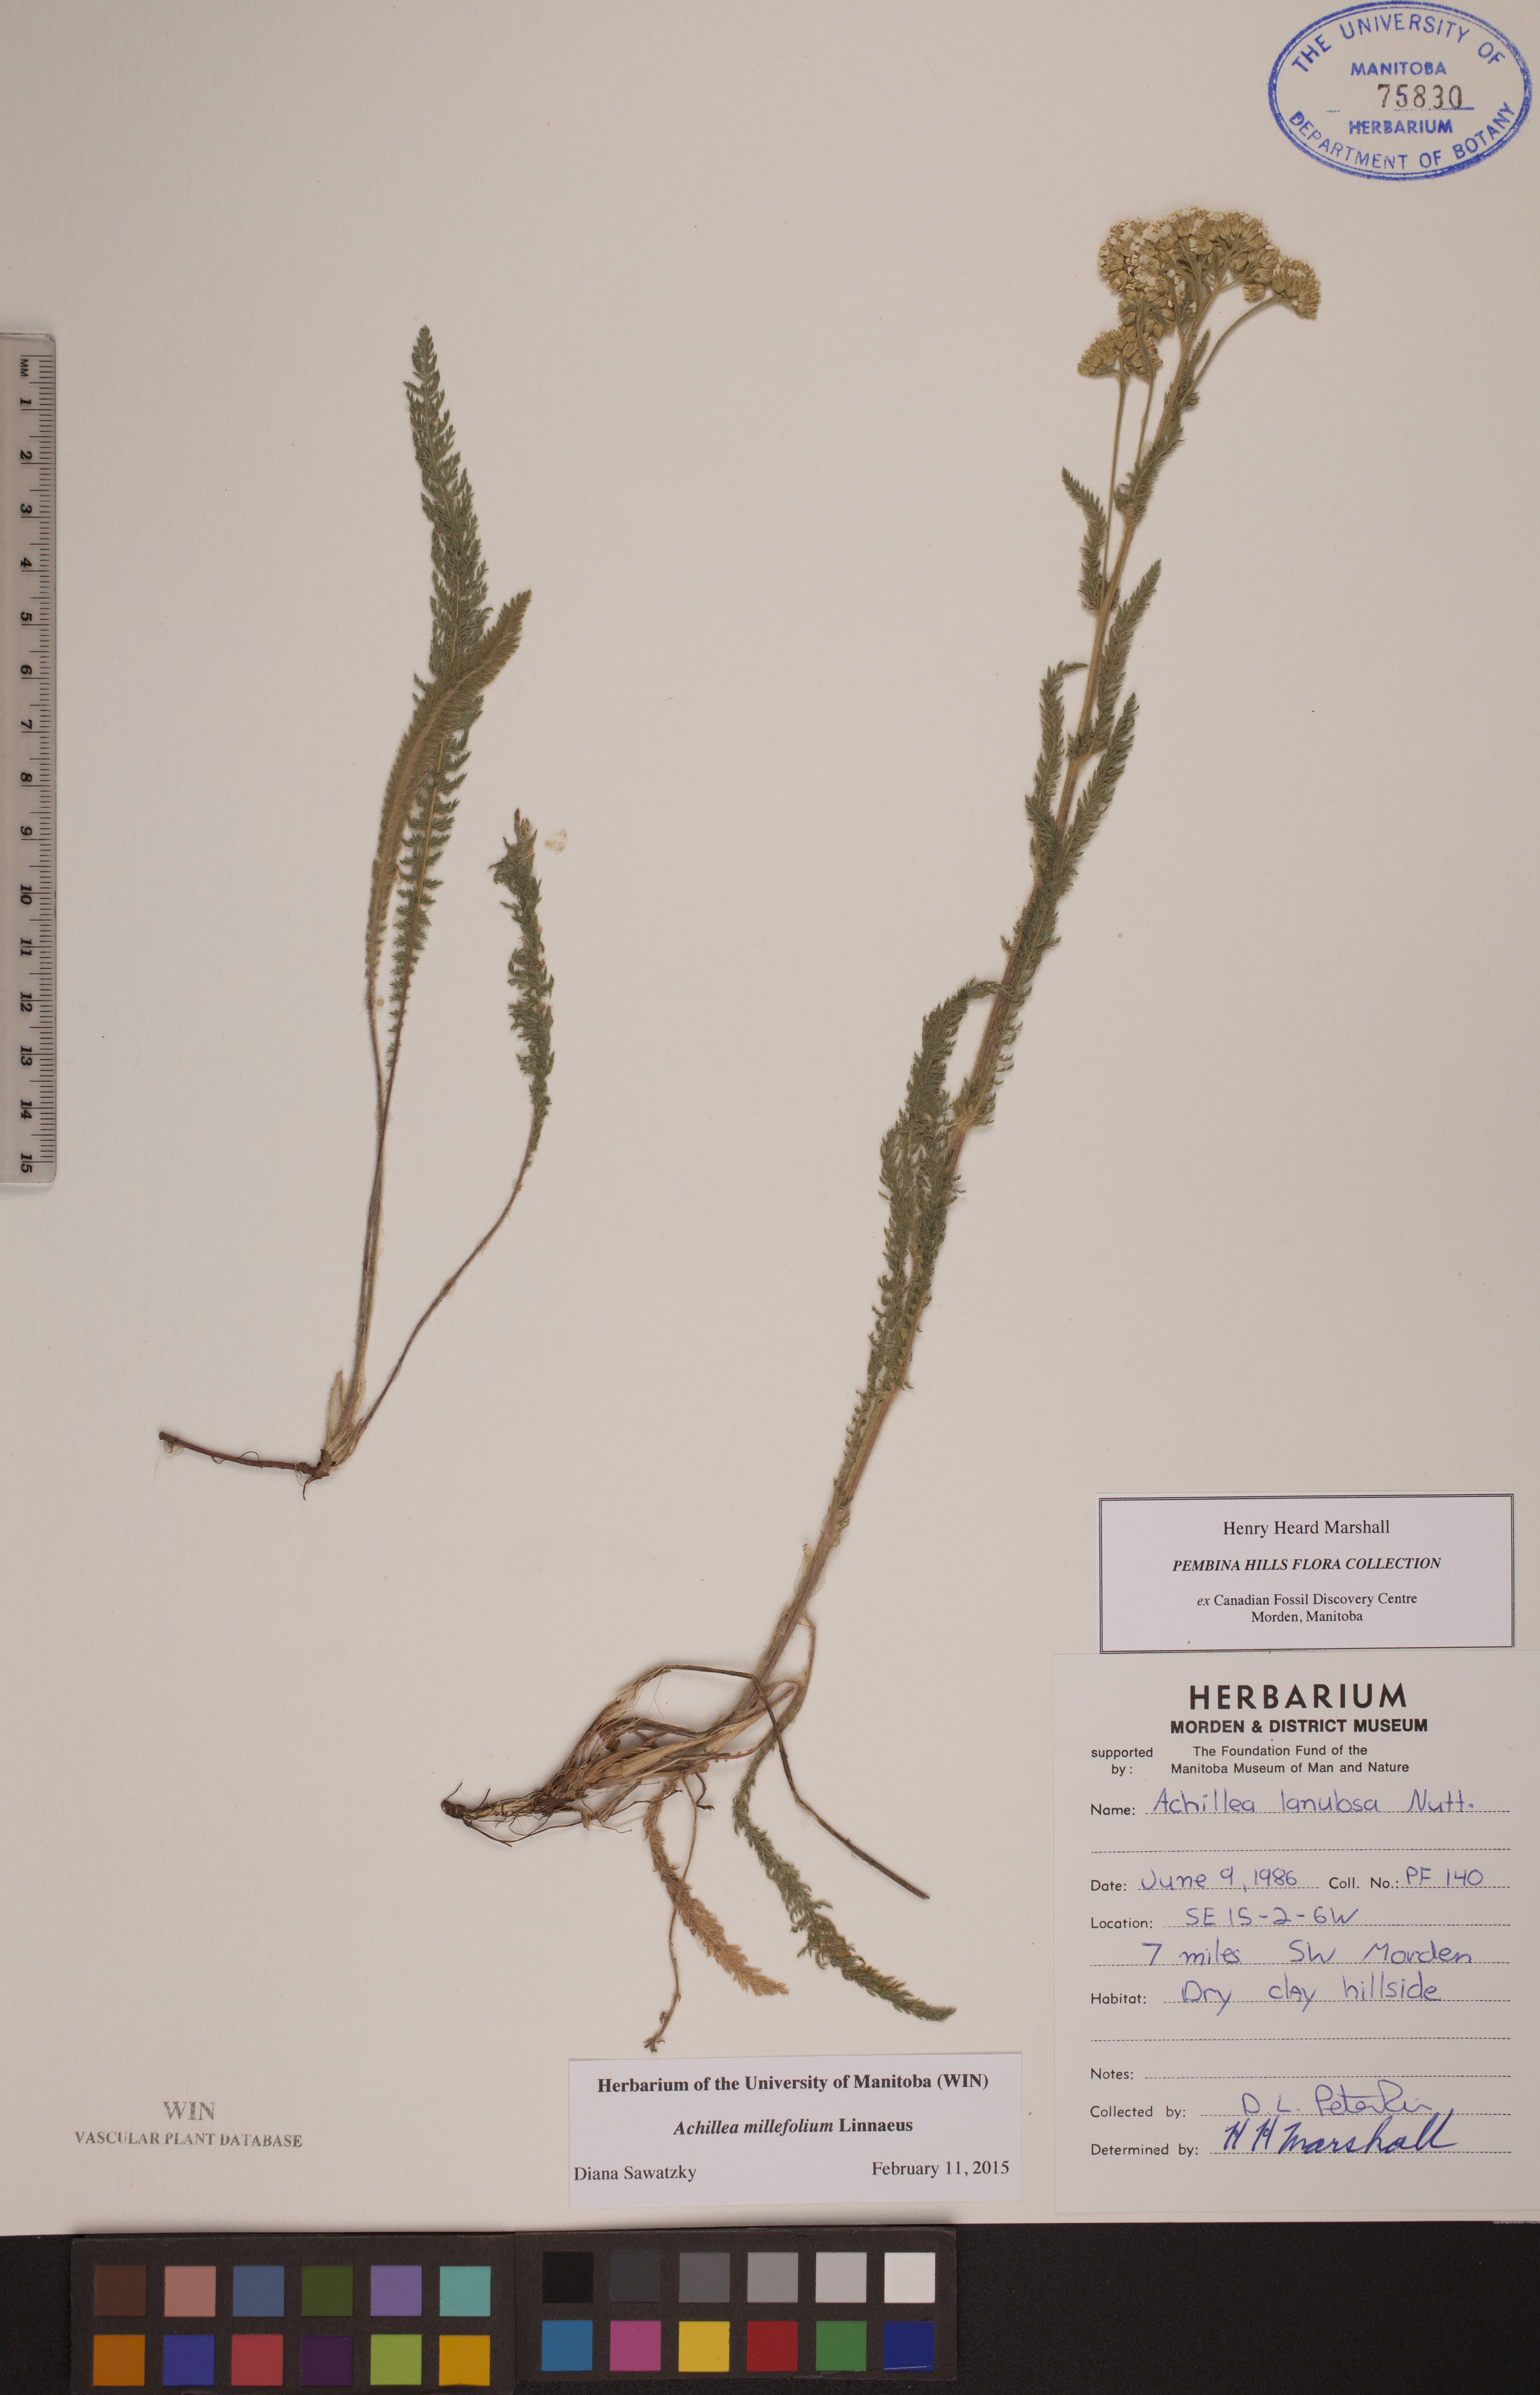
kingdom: Plantae
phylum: Tracheophyta
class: Magnoliopsida
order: Asterales
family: Asteraceae
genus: Achillea
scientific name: Achillea millefolium
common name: Yarrow
